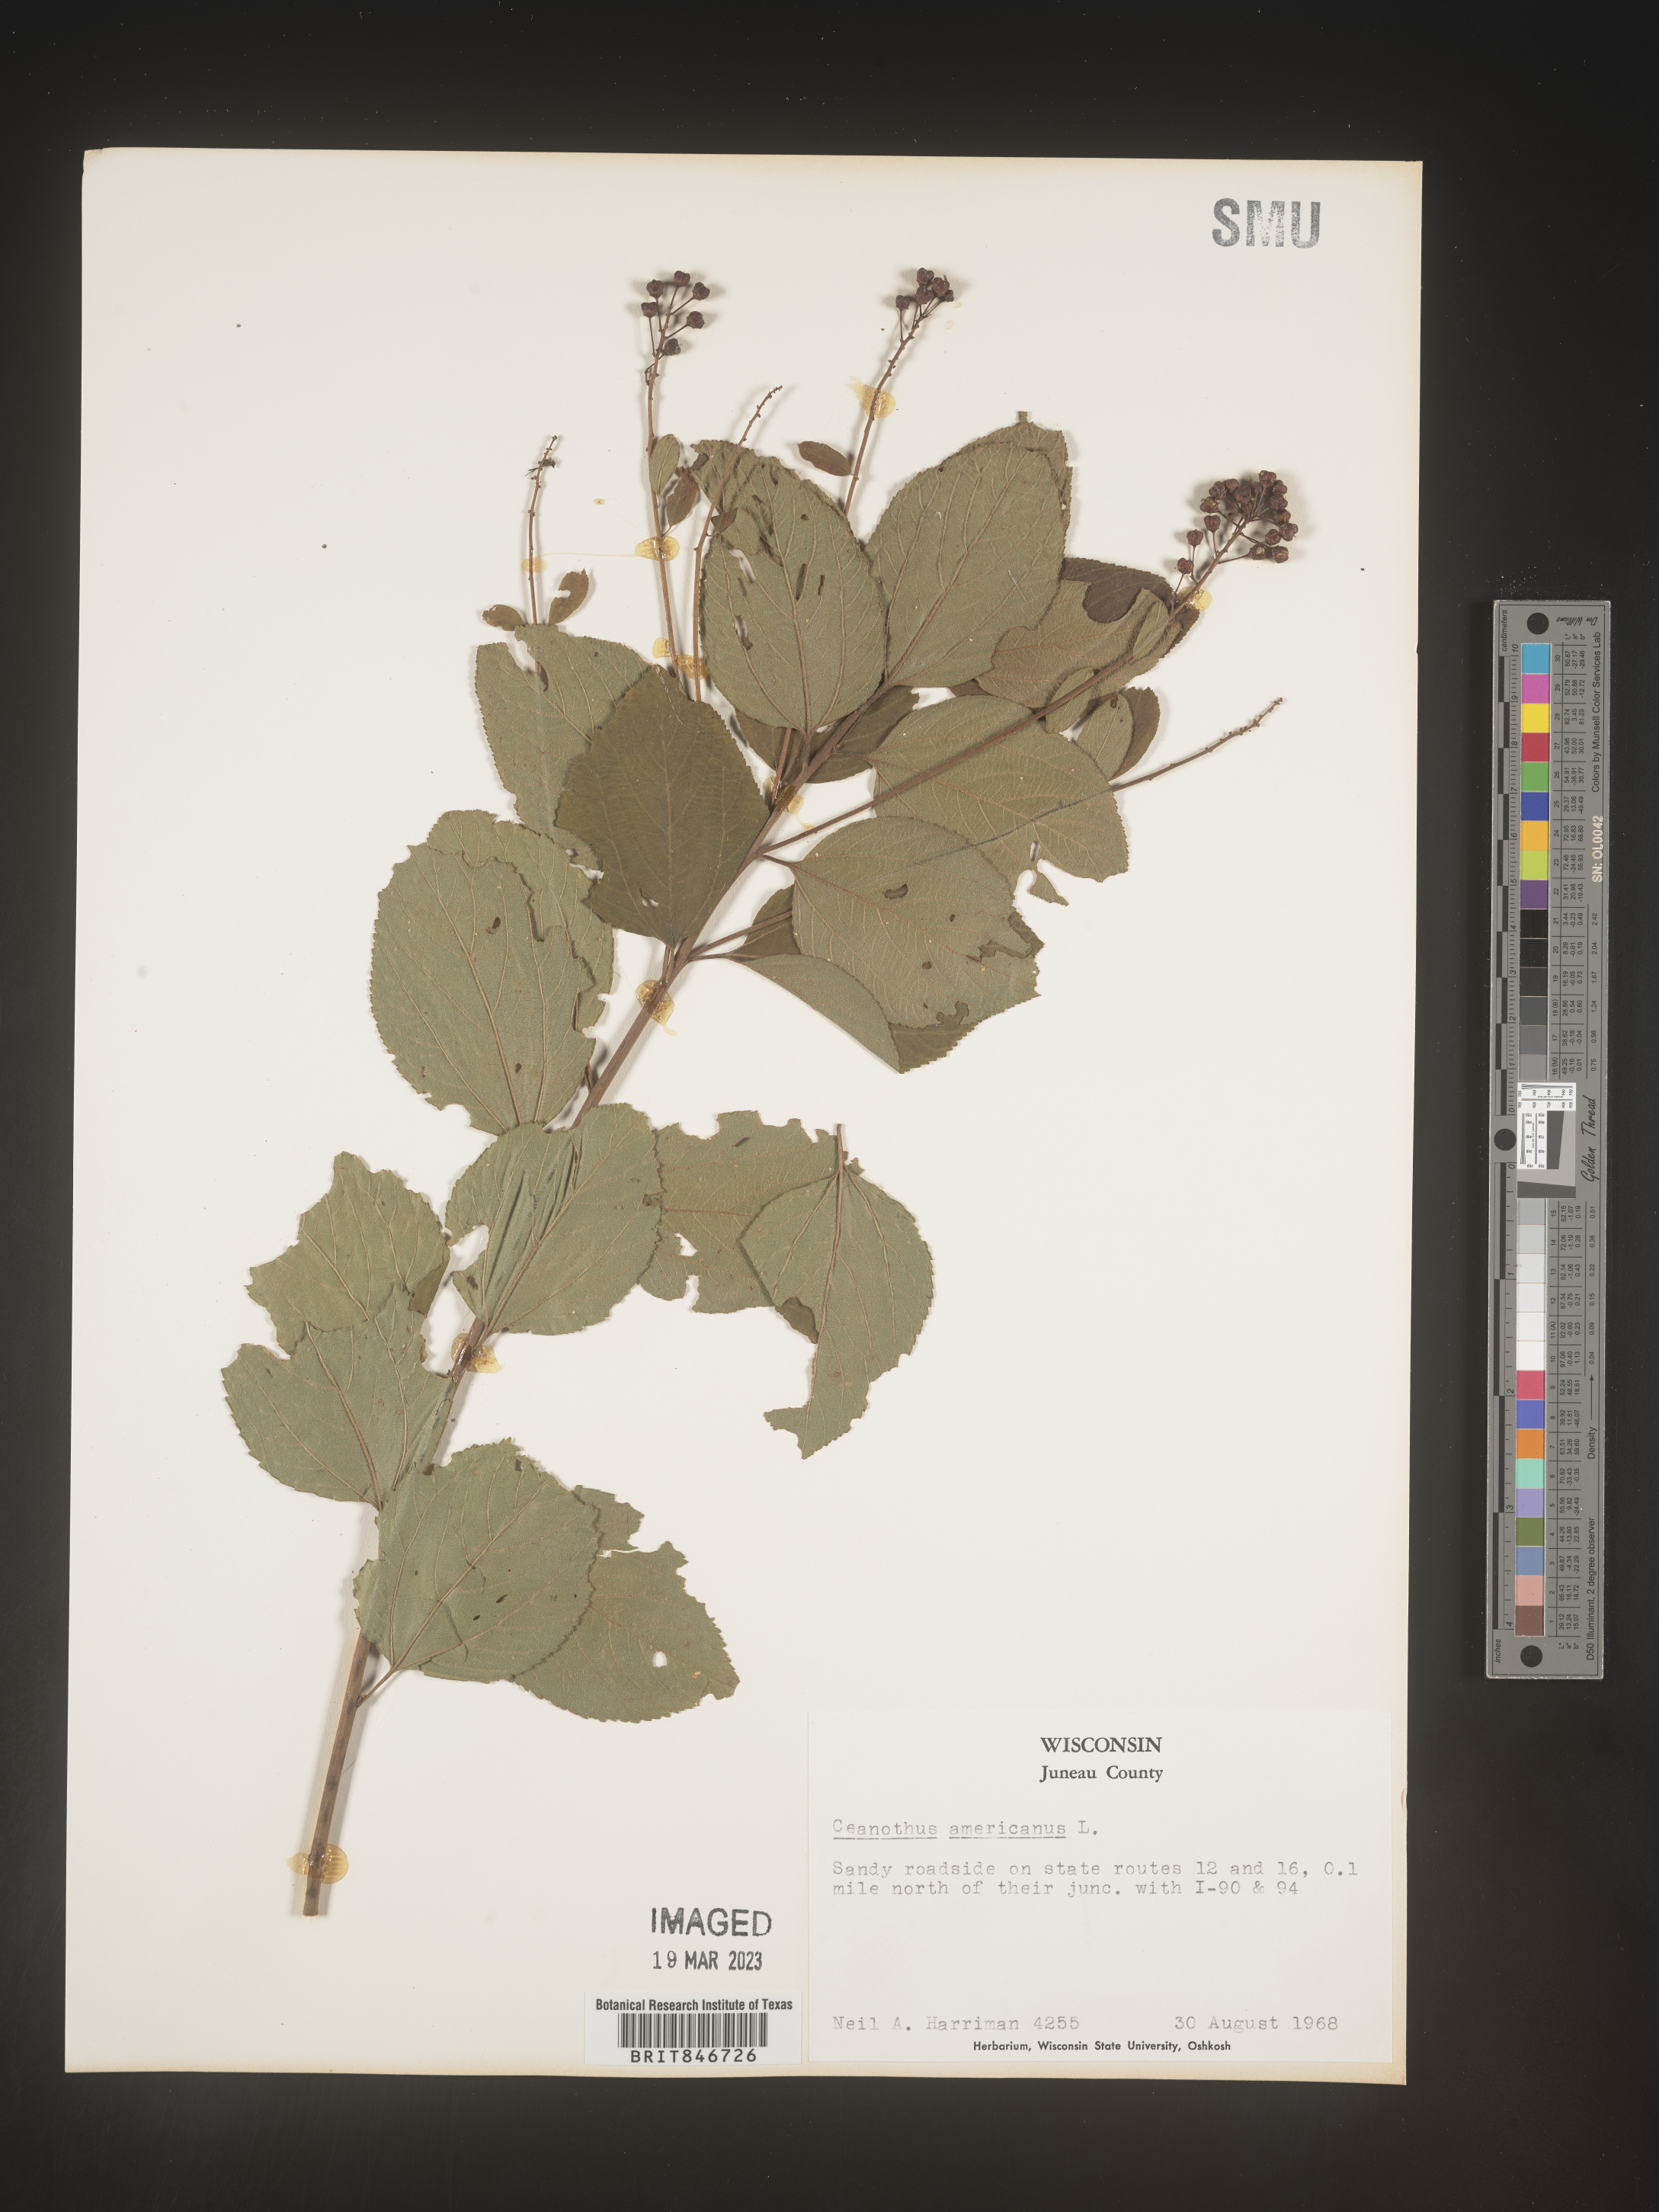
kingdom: Plantae
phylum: Tracheophyta
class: Magnoliopsida
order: Rosales
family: Rhamnaceae
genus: Ceanothus
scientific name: Ceanothus americanus
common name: Redroot
